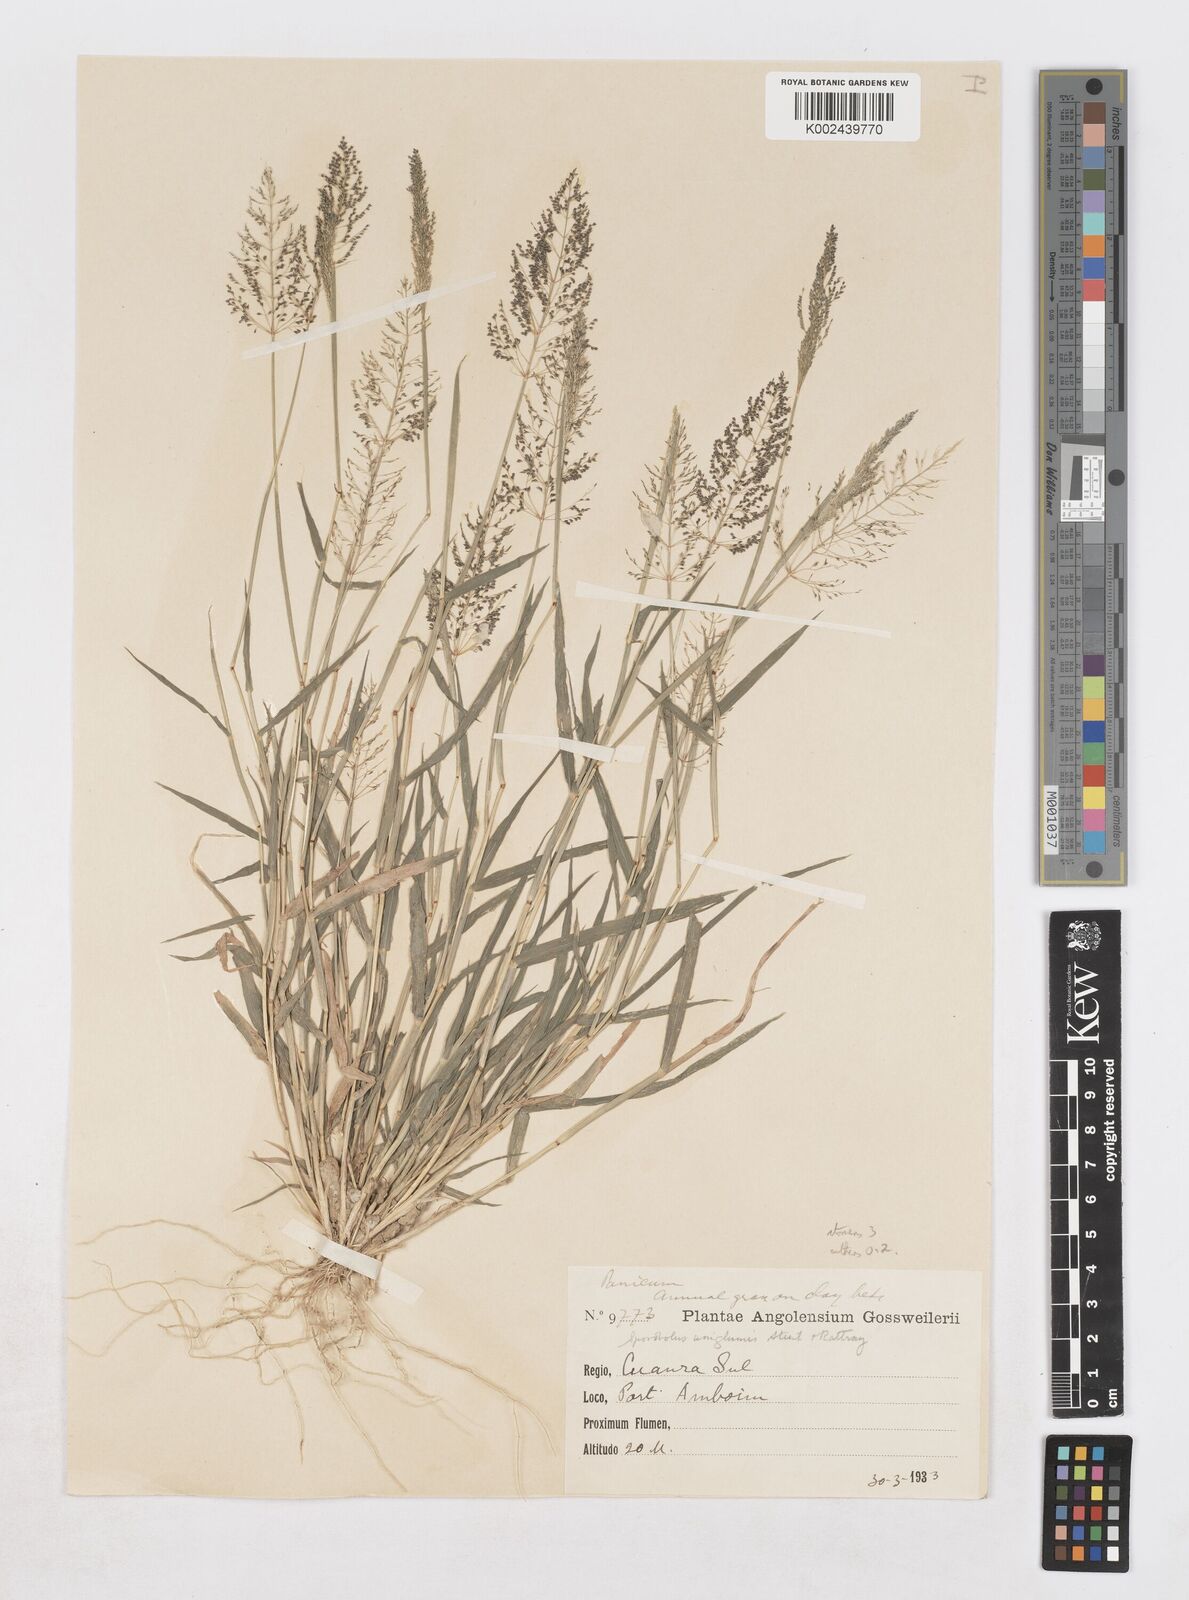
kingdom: Plantae
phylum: Tracheophyta
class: Liliopsida
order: Poales
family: Poaceae
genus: Sporobolus
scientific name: Sporobolus coromandelianus
